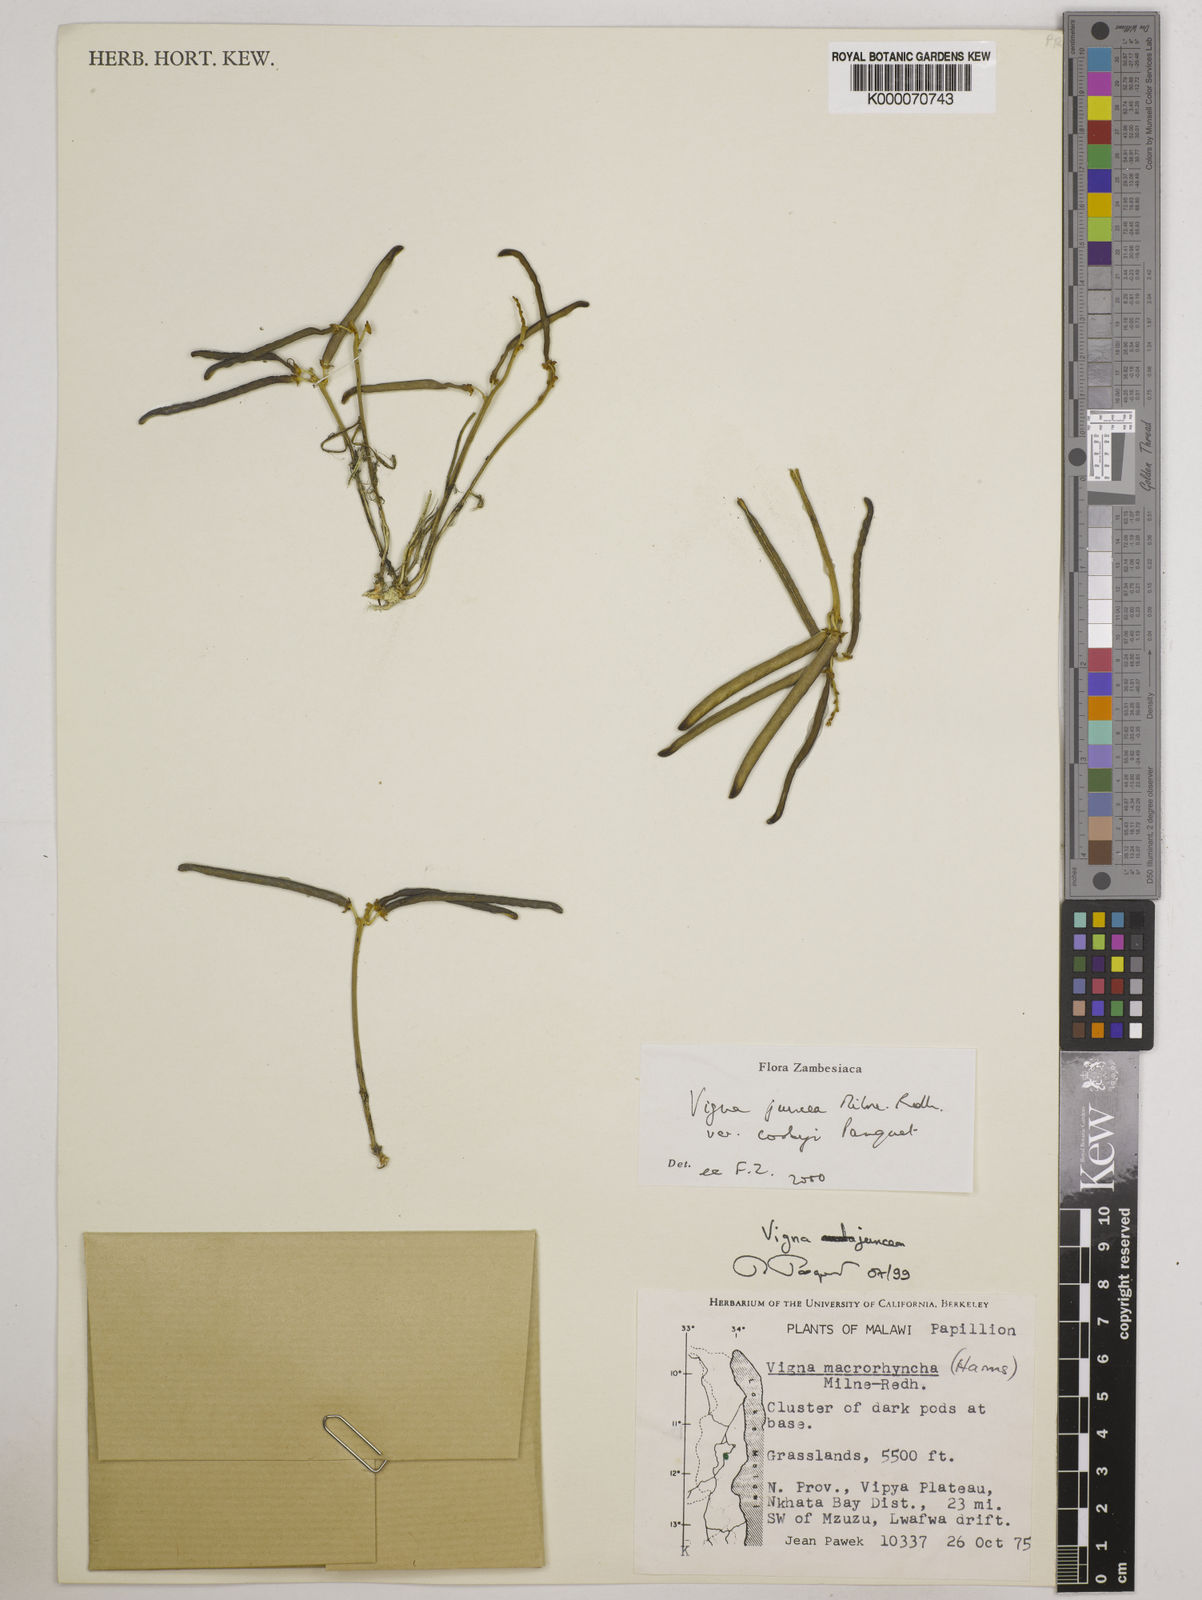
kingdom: Plantae
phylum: Tracheophyta
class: Magnoliopsida
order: Fabales
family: Fabaceae
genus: Vigna
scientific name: Vigna juncea
